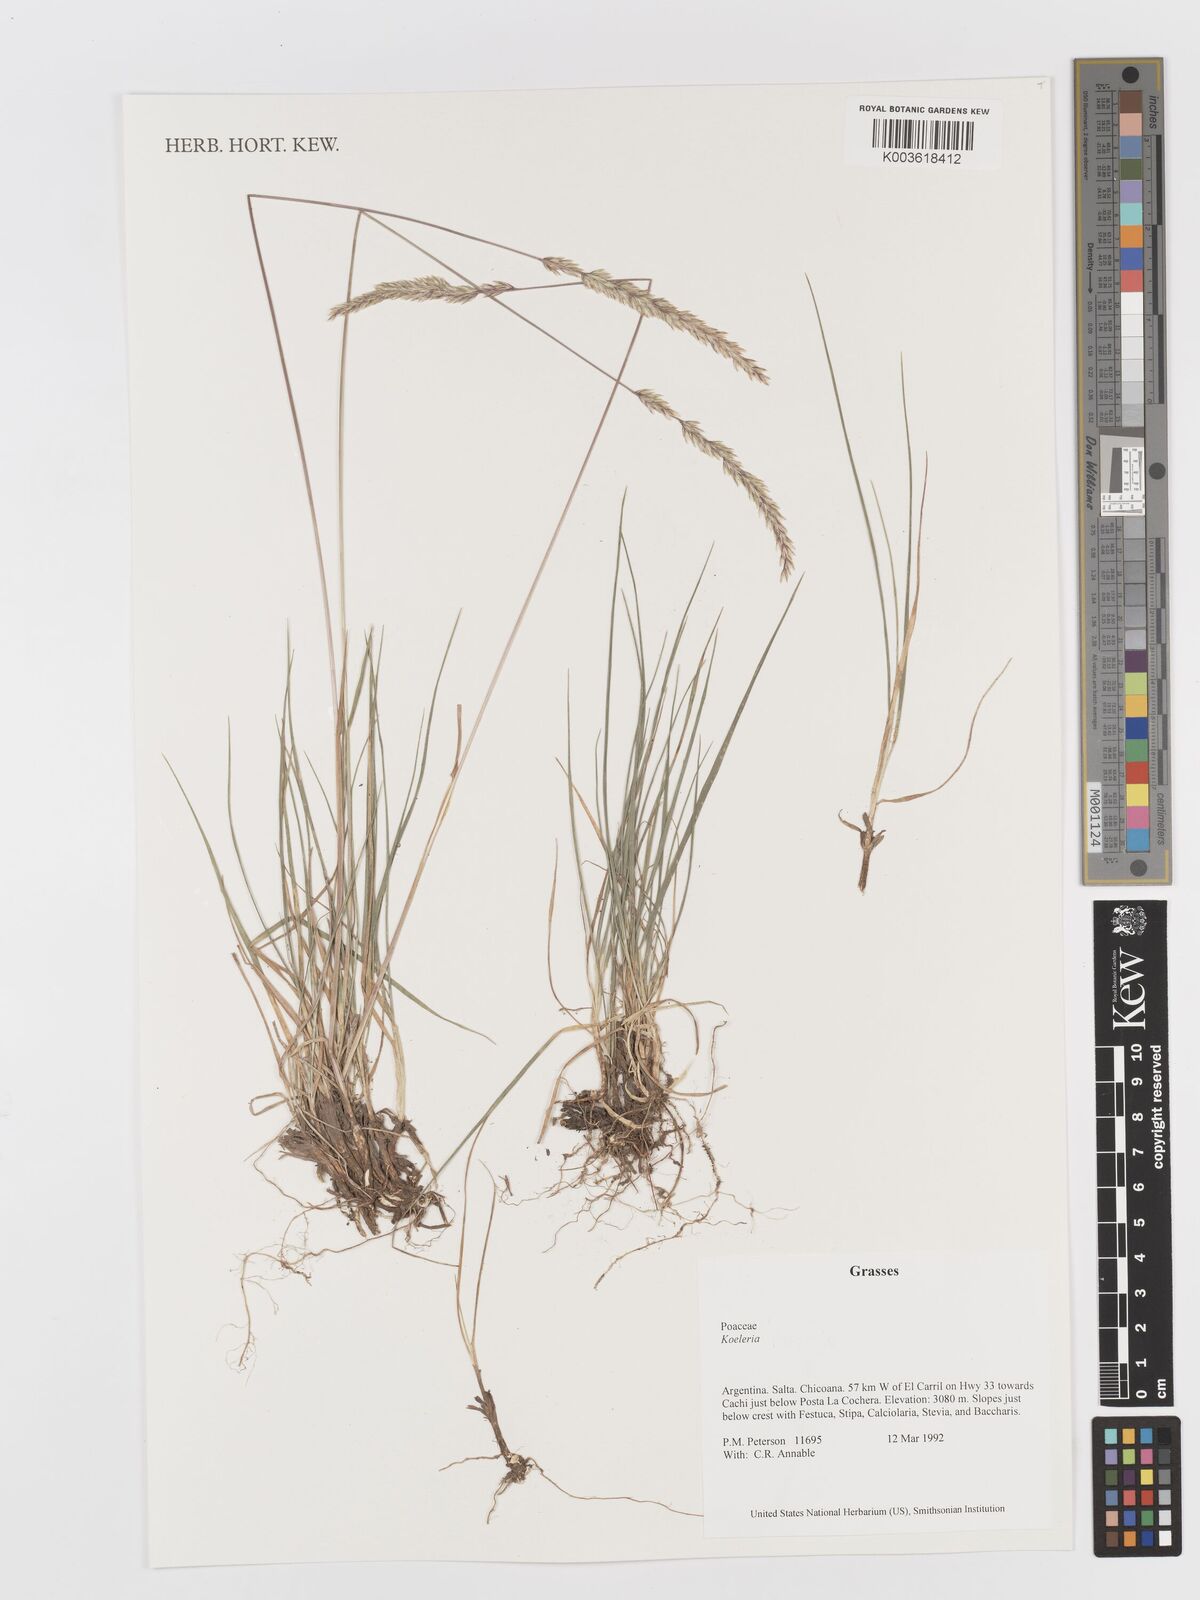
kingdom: Plantae
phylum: Tracheophyta
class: Liliopsida
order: Poales
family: Poaceae
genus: Koeleria
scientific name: Koeleria
